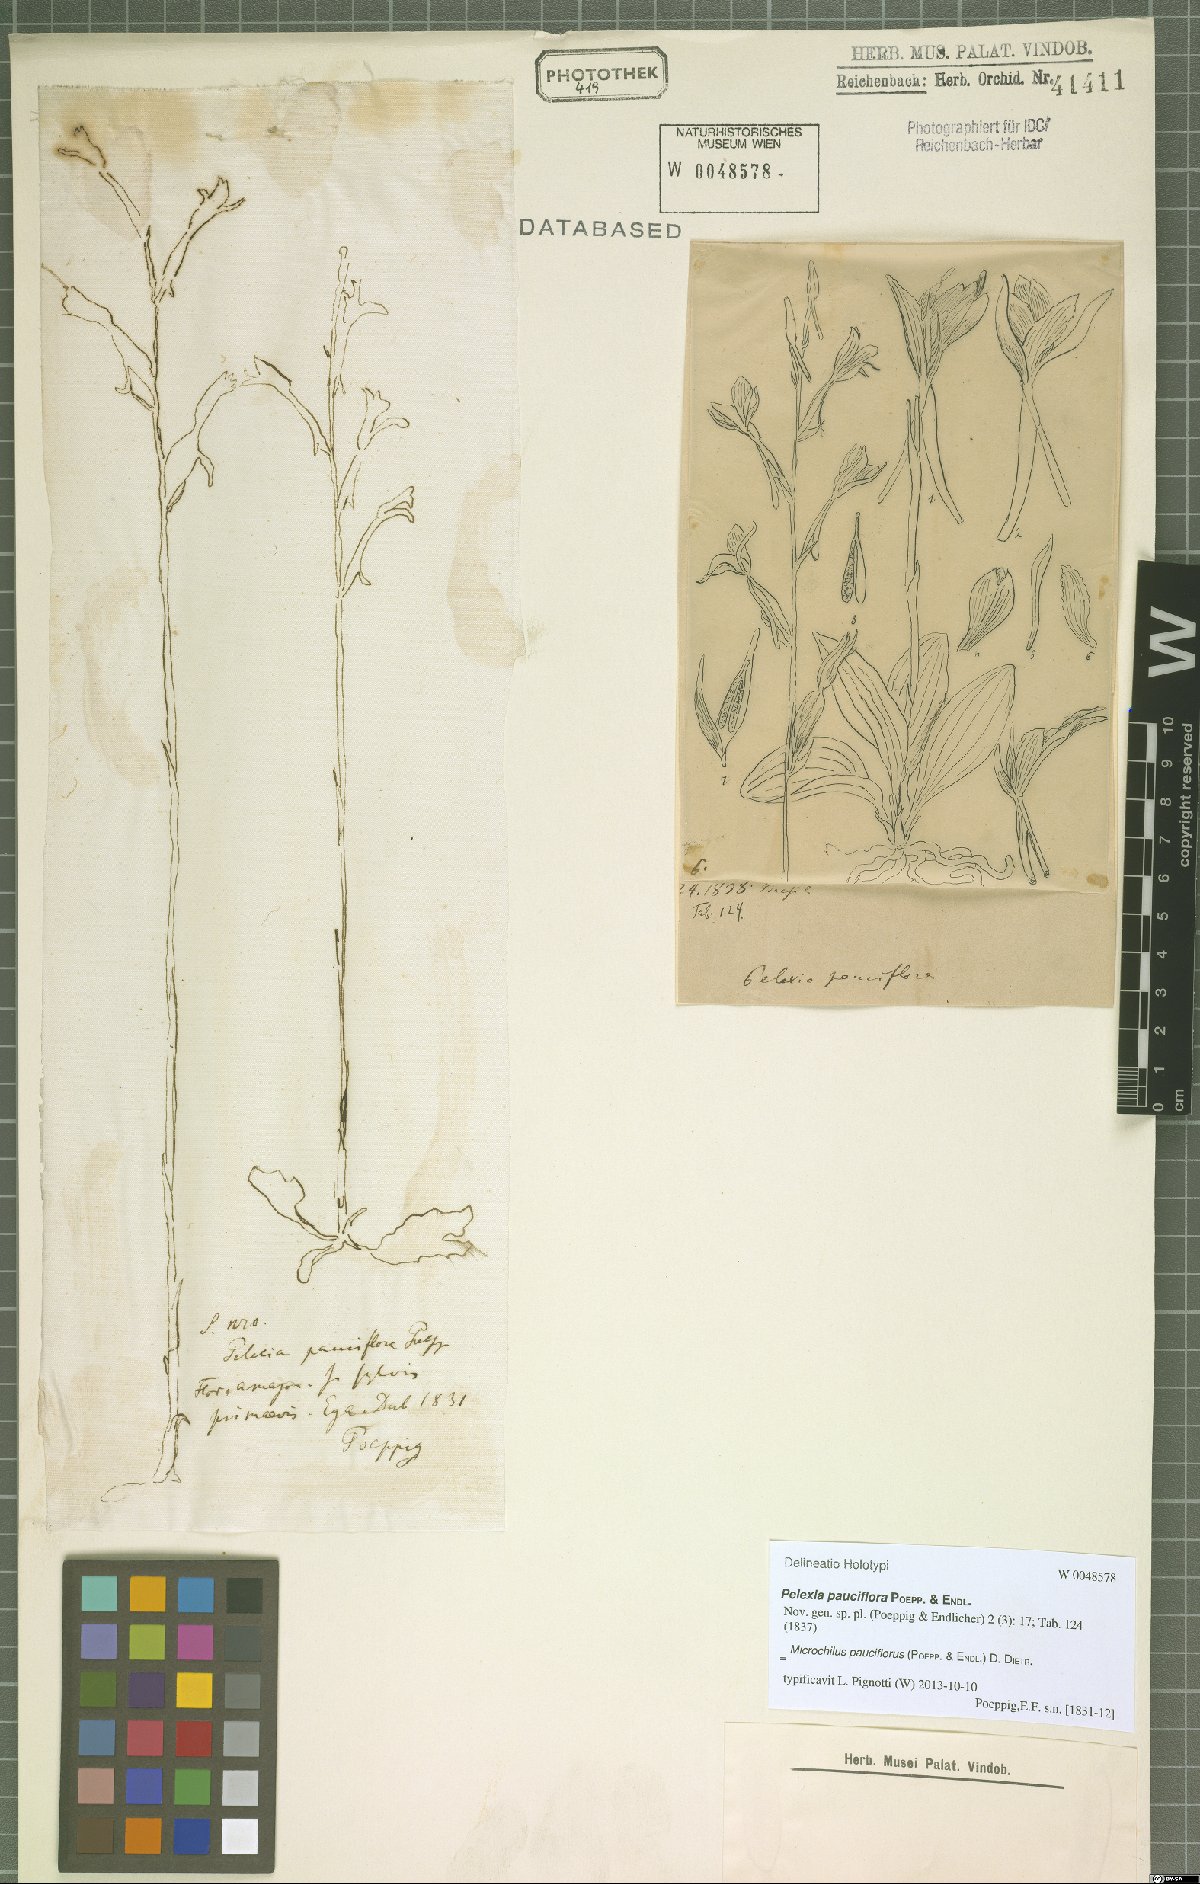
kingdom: Plantae
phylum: Tracheophyta
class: Liliopsida
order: Asparagales
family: Orchidaceae
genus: Microchilus
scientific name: Microchilus pauciflorus
